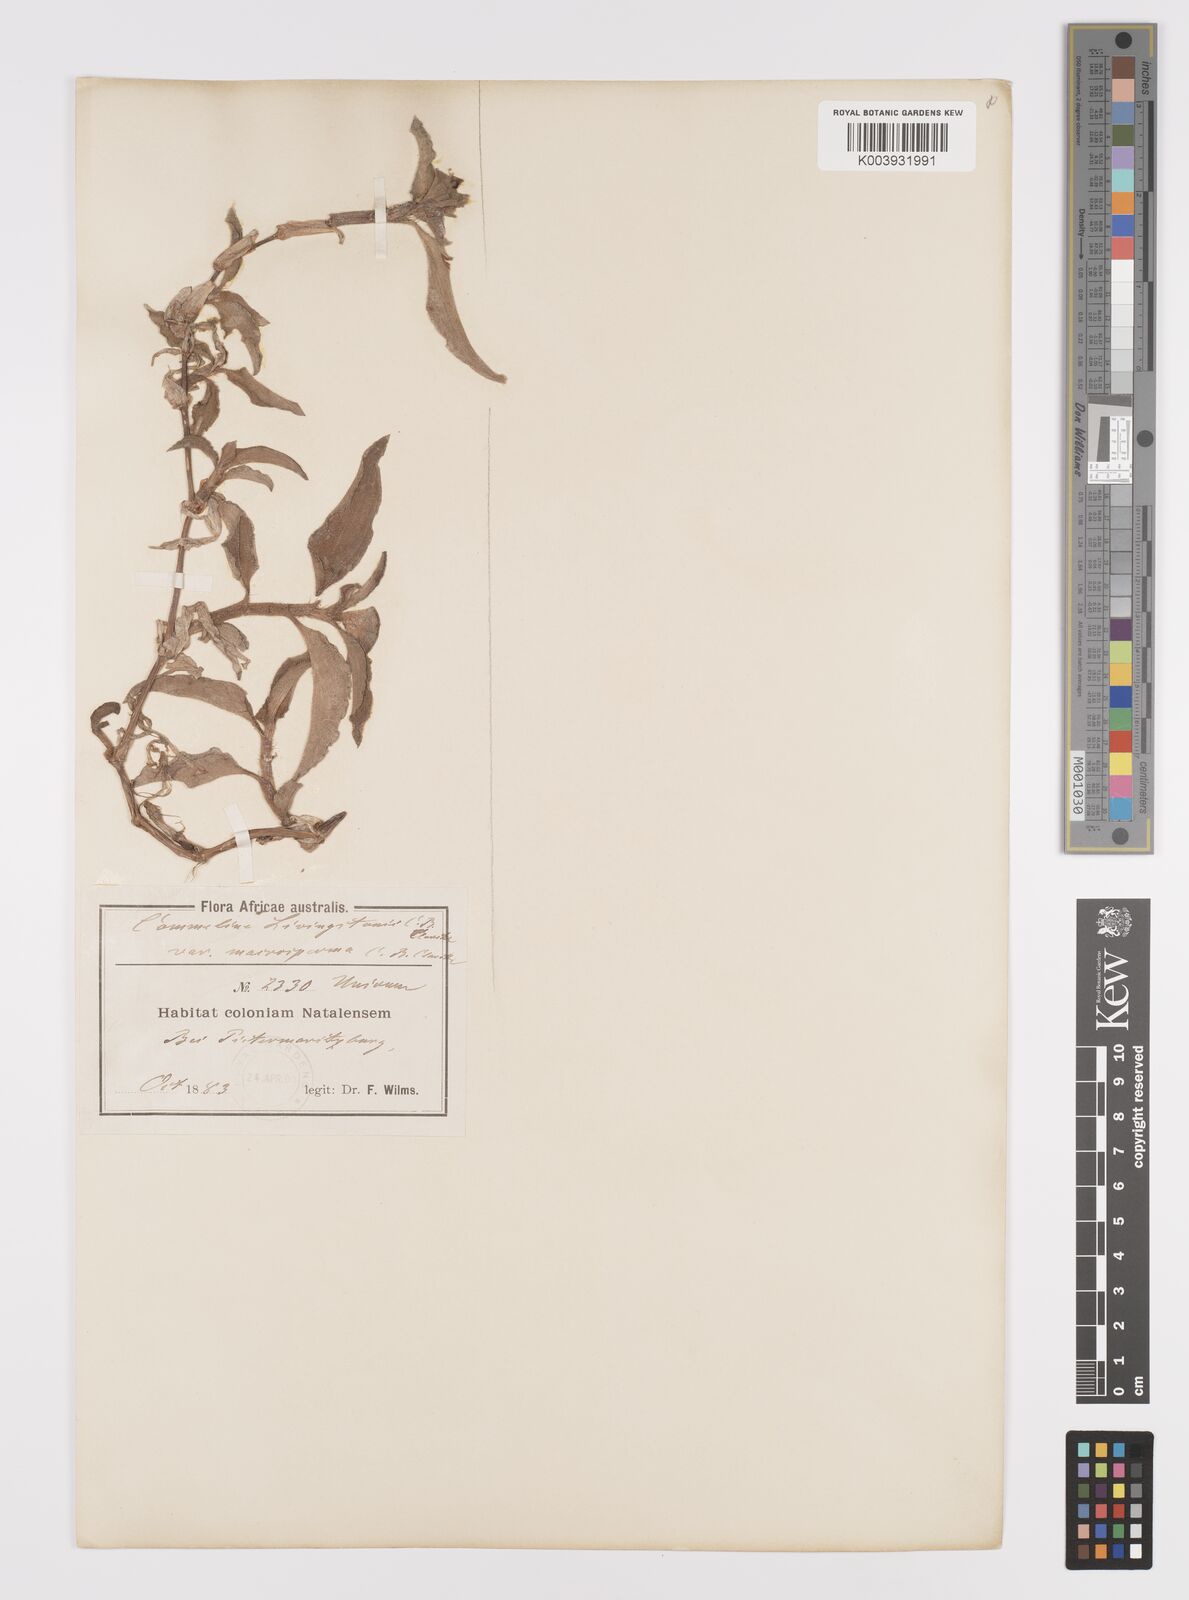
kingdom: Plantae
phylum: Tracheophyta
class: Liliopsida
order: Commelinales
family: Commelinaceae
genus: Commelina
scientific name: Commelina erecta
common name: Blousel blommetjie
